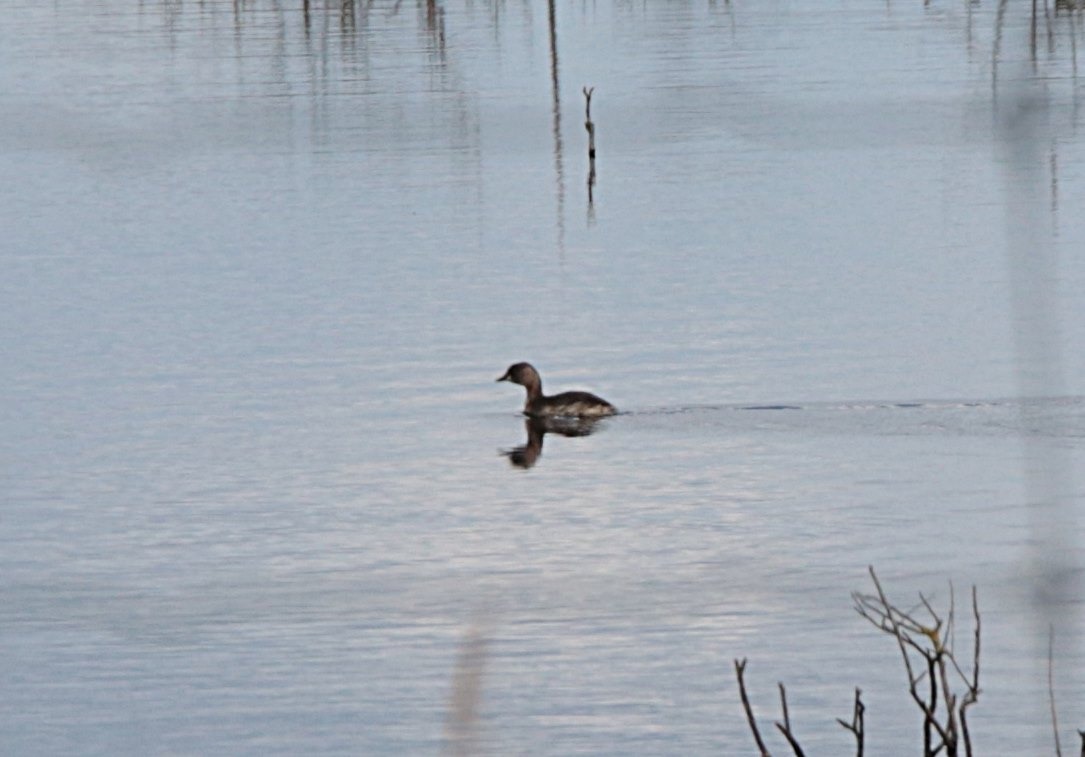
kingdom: Animalia
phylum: Chordata
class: Aves
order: Podicipediformes
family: Podicipedidae
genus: Tachybaptus
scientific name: Tachybaptus ruficollis
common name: Lille lappedykker
